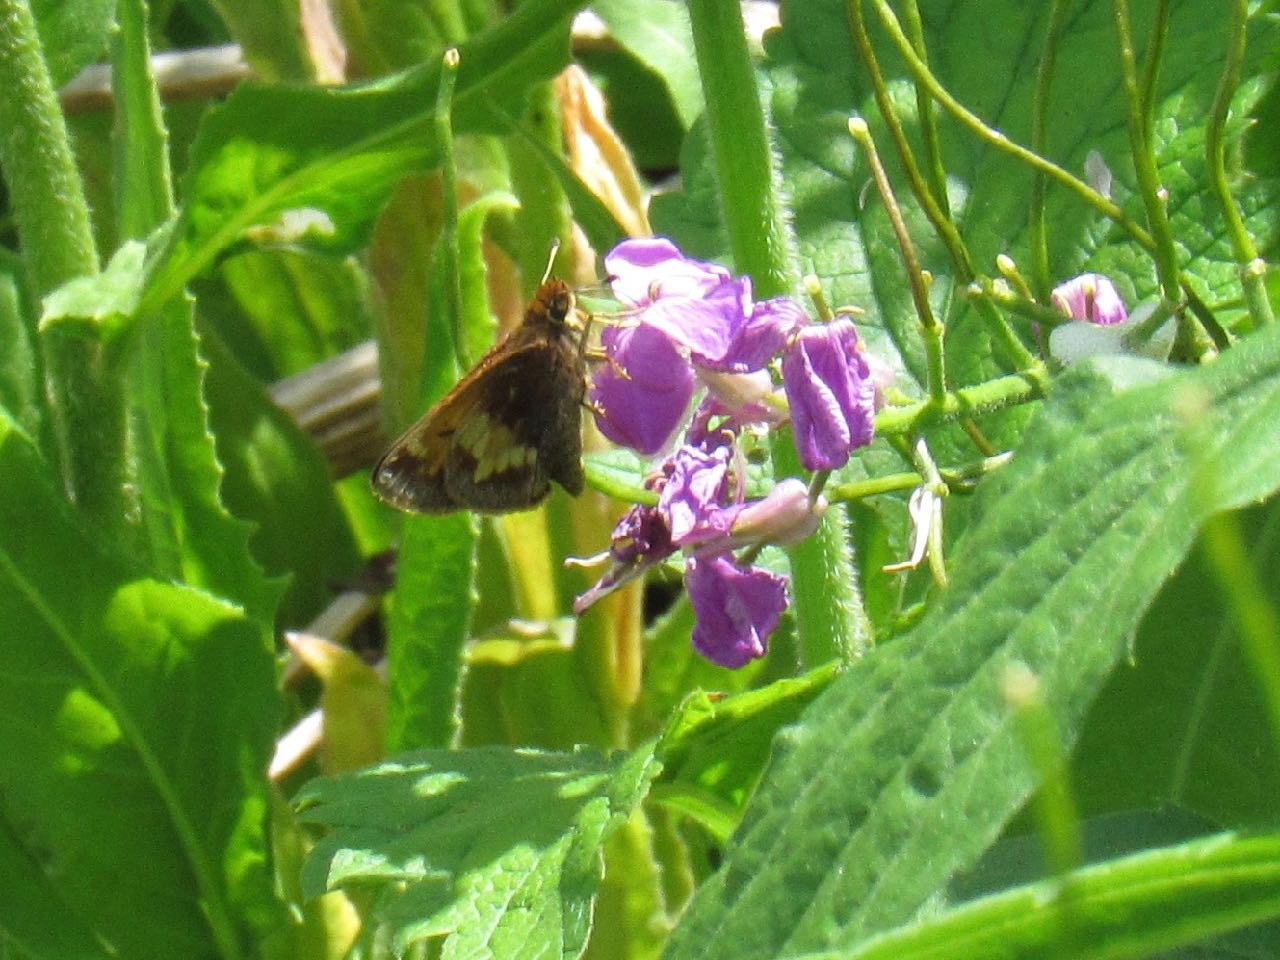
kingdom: Animalia
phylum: Arthropoda
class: Insecta
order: Lepidoptera
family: Hesperiidae
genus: Lon
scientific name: Lon hobomok
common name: Hobomok Skipper
